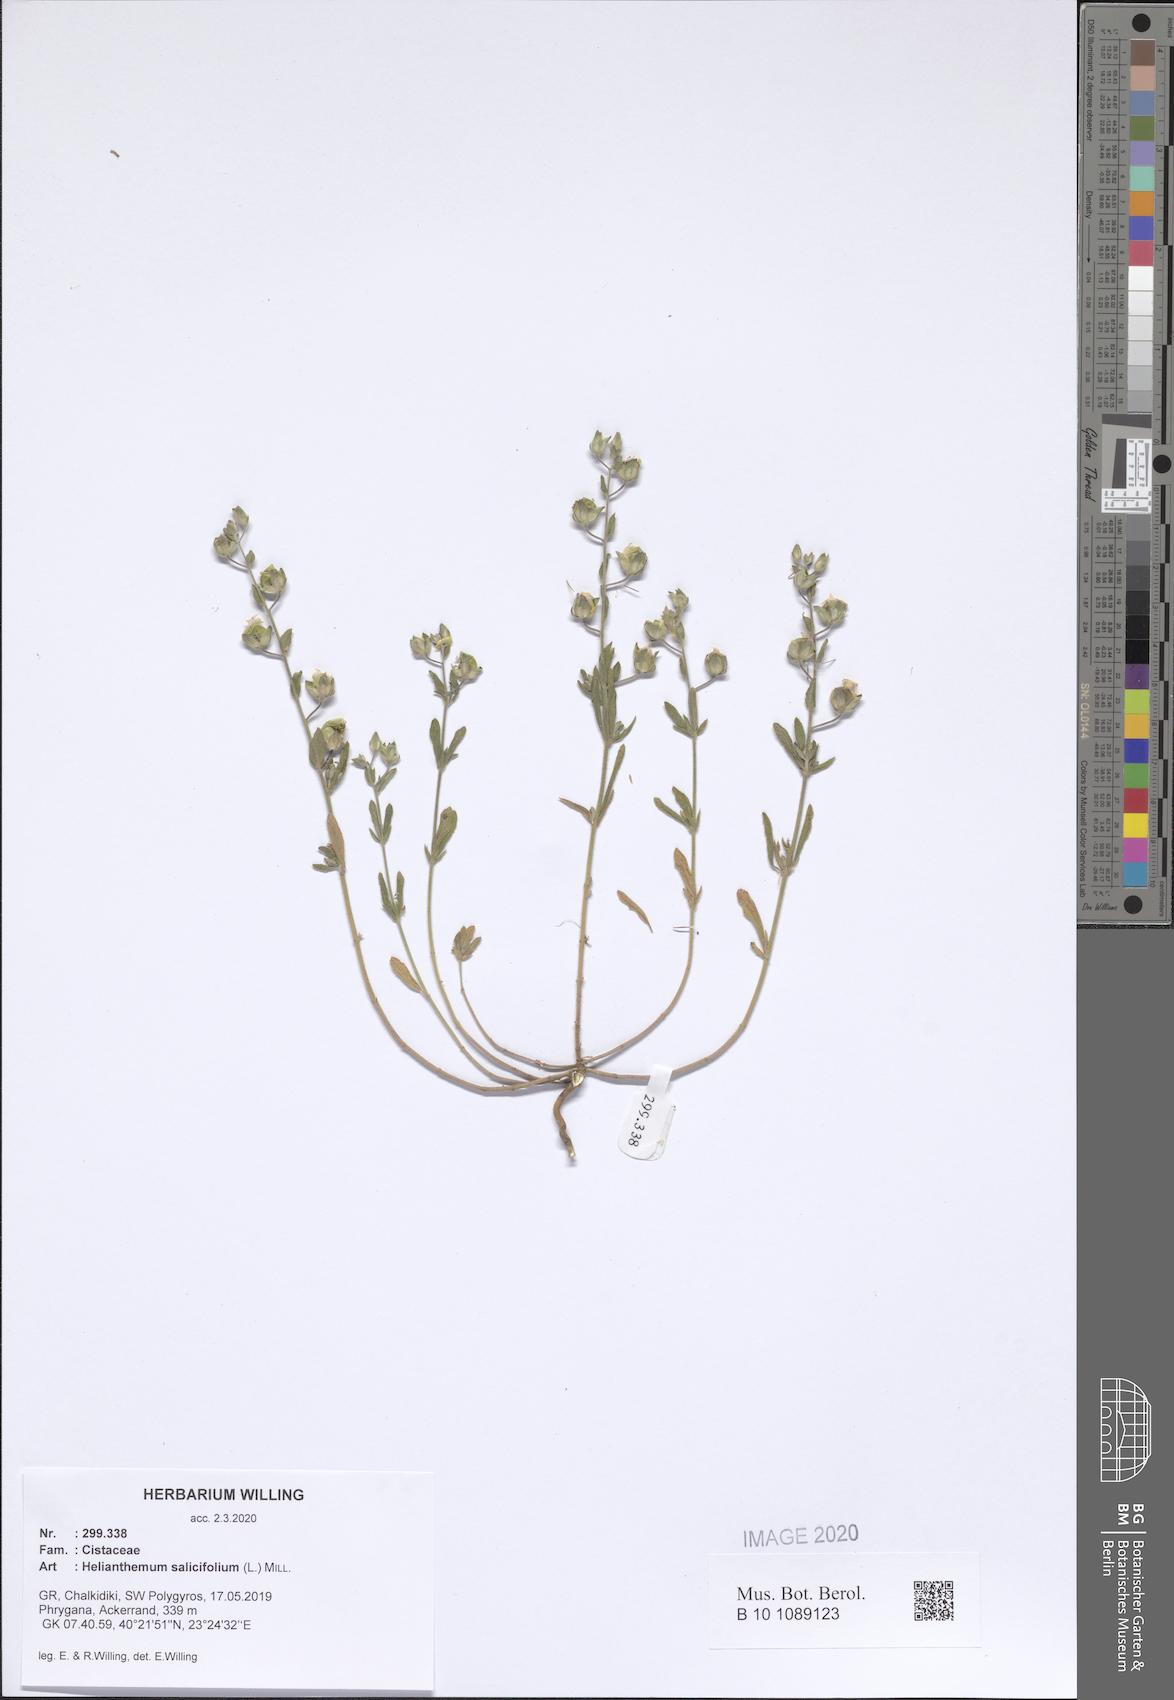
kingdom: Plantae
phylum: Tracheophyta
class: Magnoliopsida
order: Malvales
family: Cistaceae
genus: Helianthemum
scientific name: Helianthemum salicifolium
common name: Willowleaf frostweed
